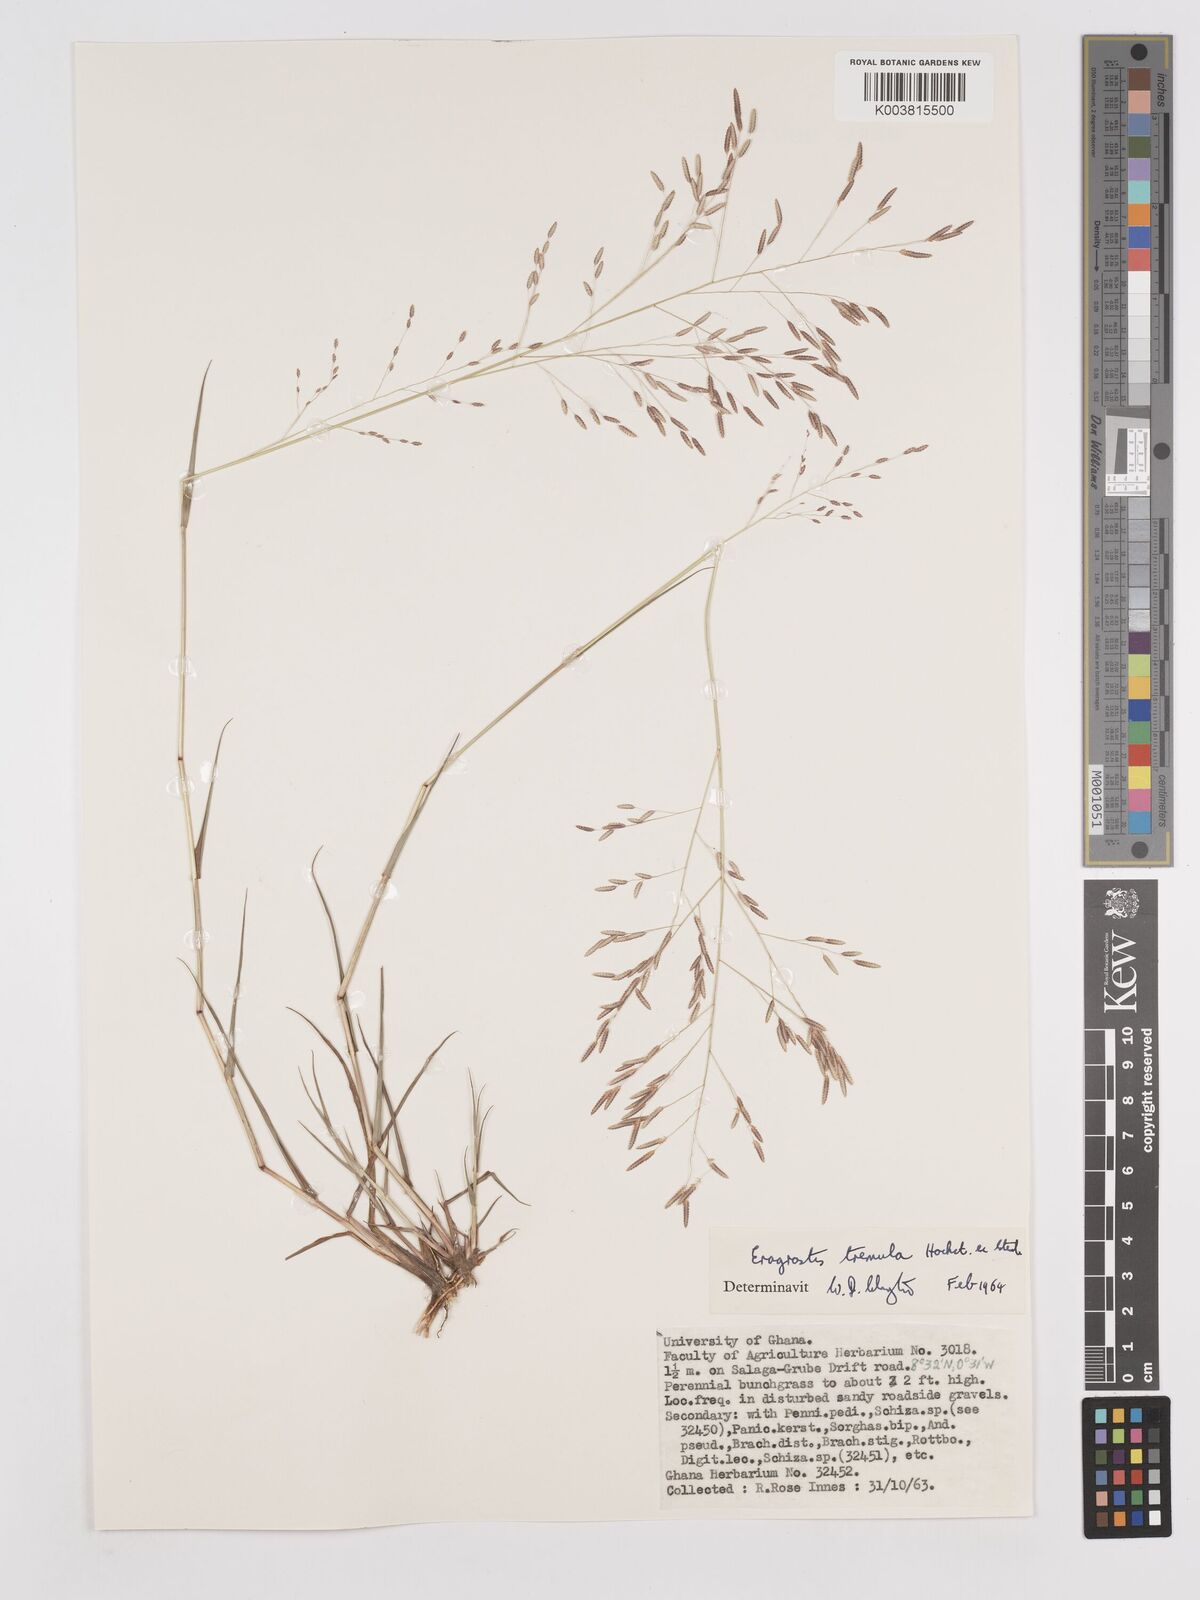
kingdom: Plantae
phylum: Tracheophyta
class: Liliopsida
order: Poales
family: Poaceae
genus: Eragrostis
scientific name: Eragrostis tremula
